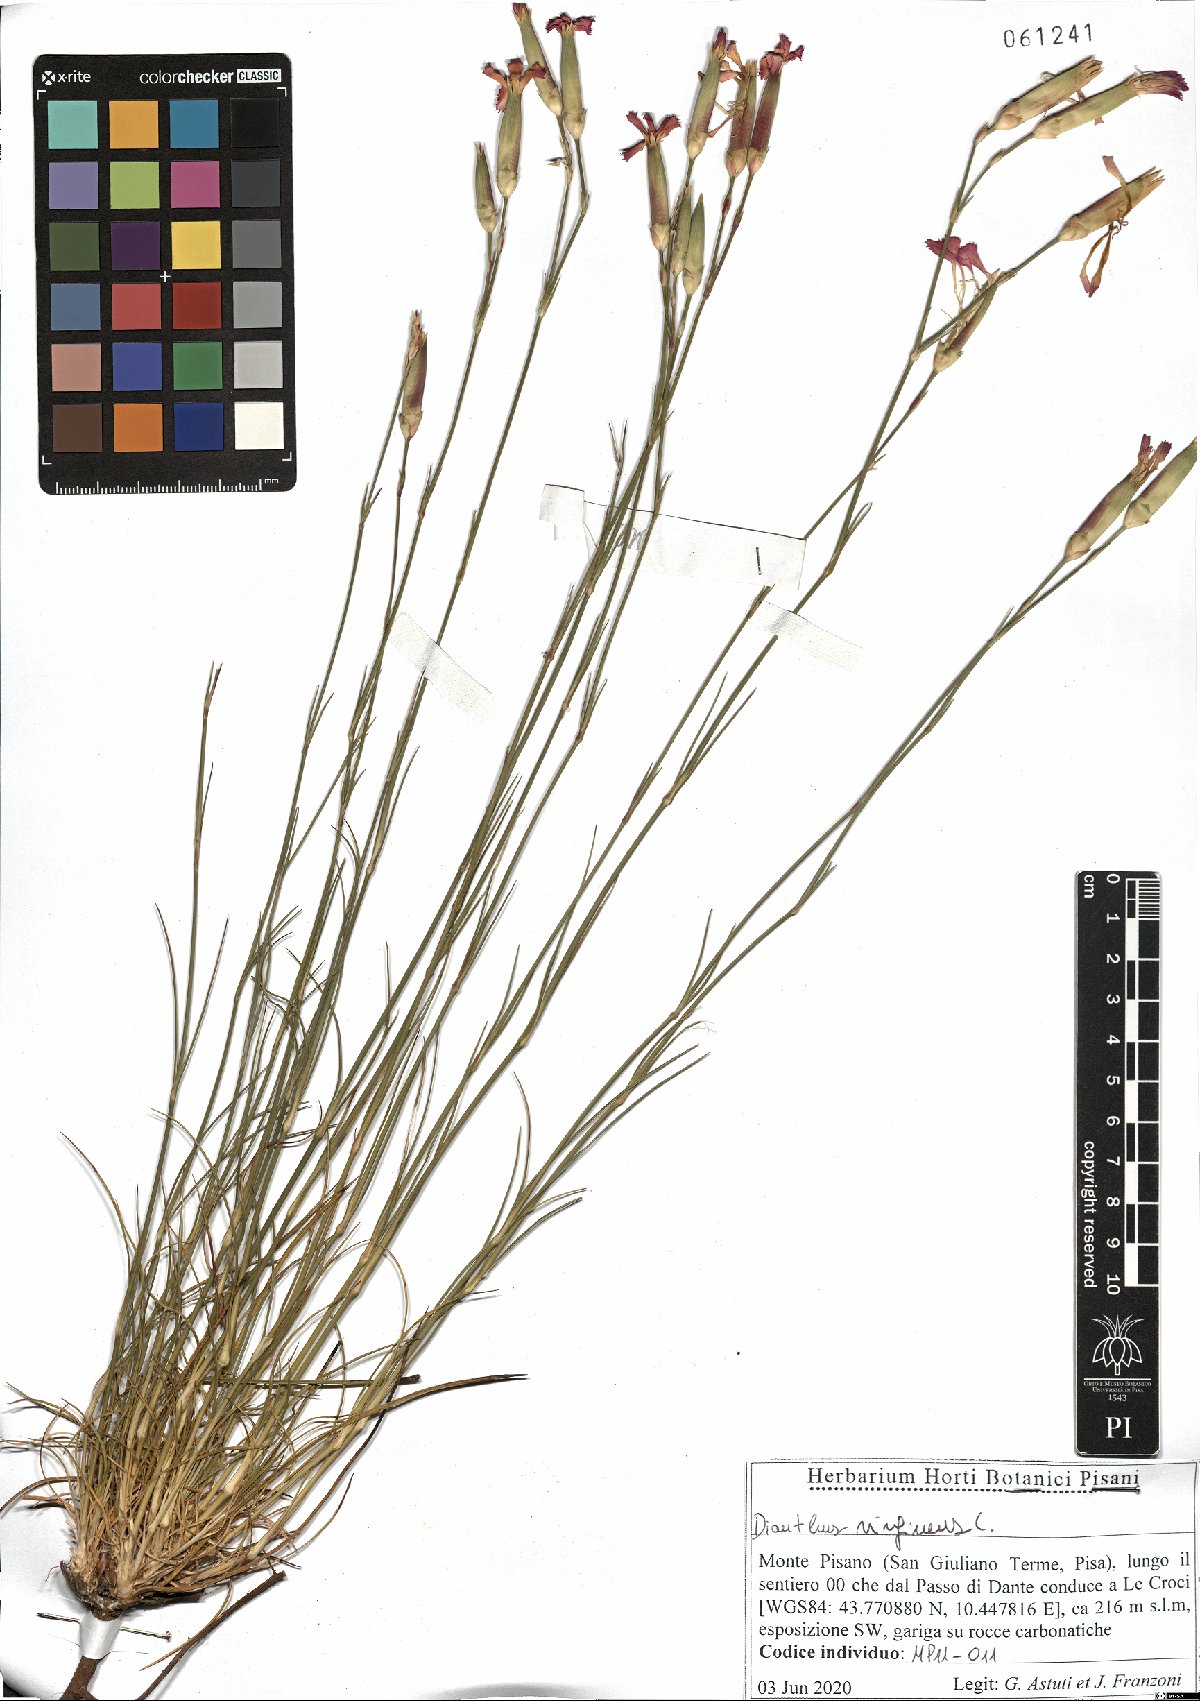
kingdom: Plantae
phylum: Tracheophyta
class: Magnoliopsida
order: Caryophyllales
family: Caryophyllaceae
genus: Dianthus
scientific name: Dianthus virgineus
